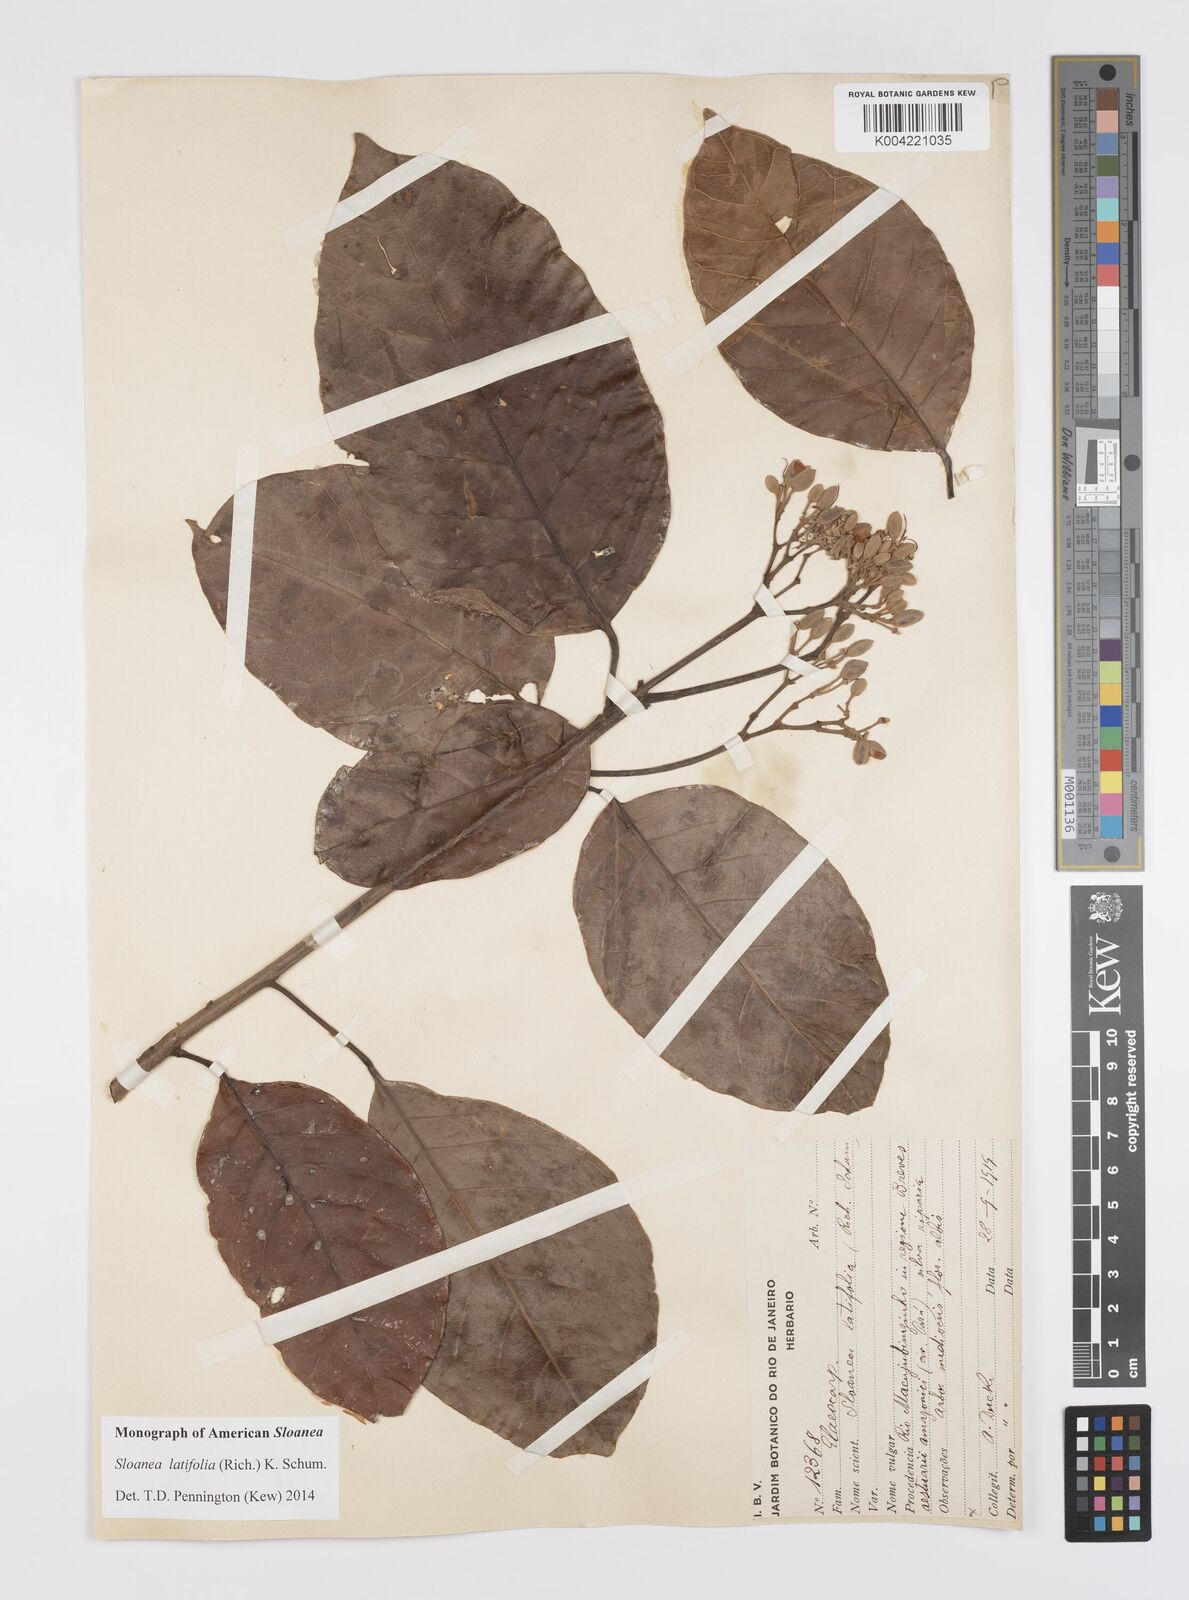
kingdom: Plantae
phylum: Tracheophyta
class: Magnoliopsida
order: Oxalidales
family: Elaeocarpaceae
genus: Sloanea
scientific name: Sloanea latifolia
